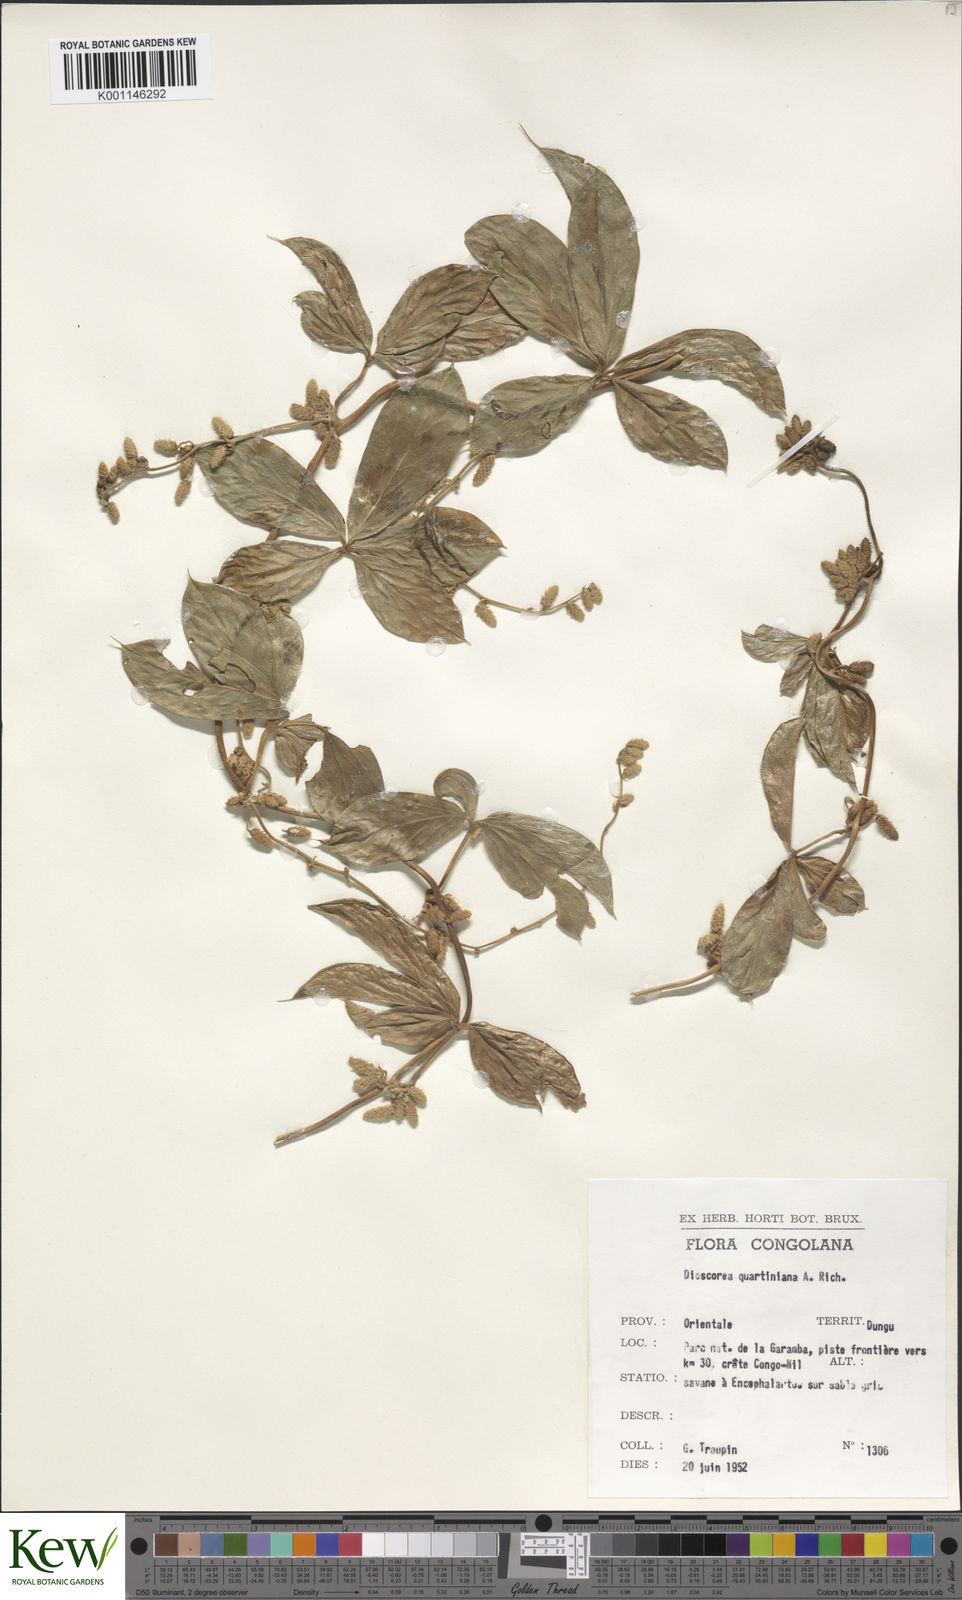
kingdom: Plantae
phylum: Tracheophyta
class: Liliopsida
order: Dioscoreales
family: Dioscoreaceae
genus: Dioscorea
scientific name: Dioscorea quartiniana
